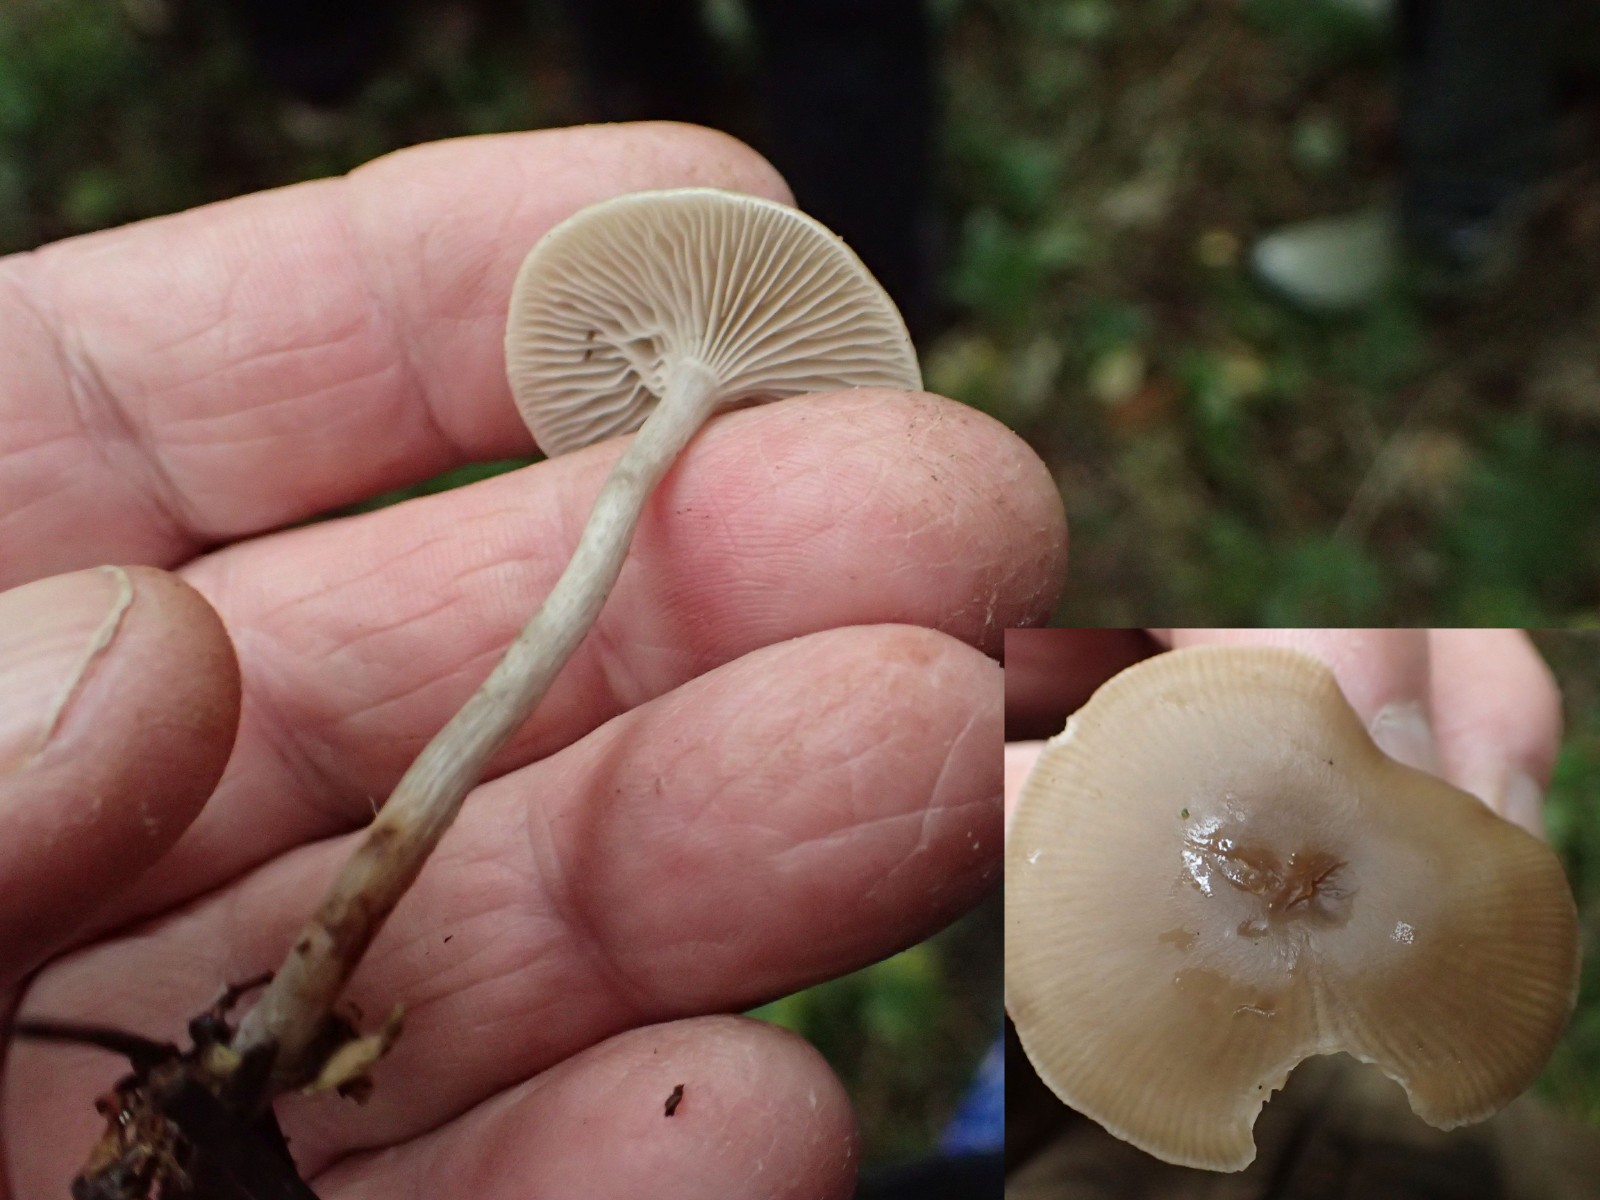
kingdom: Fungi
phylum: Basidiomycota
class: Agaricomycetes
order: Agaricales
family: Tricholomataceae
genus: Clitocybe
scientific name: Clitocybe
